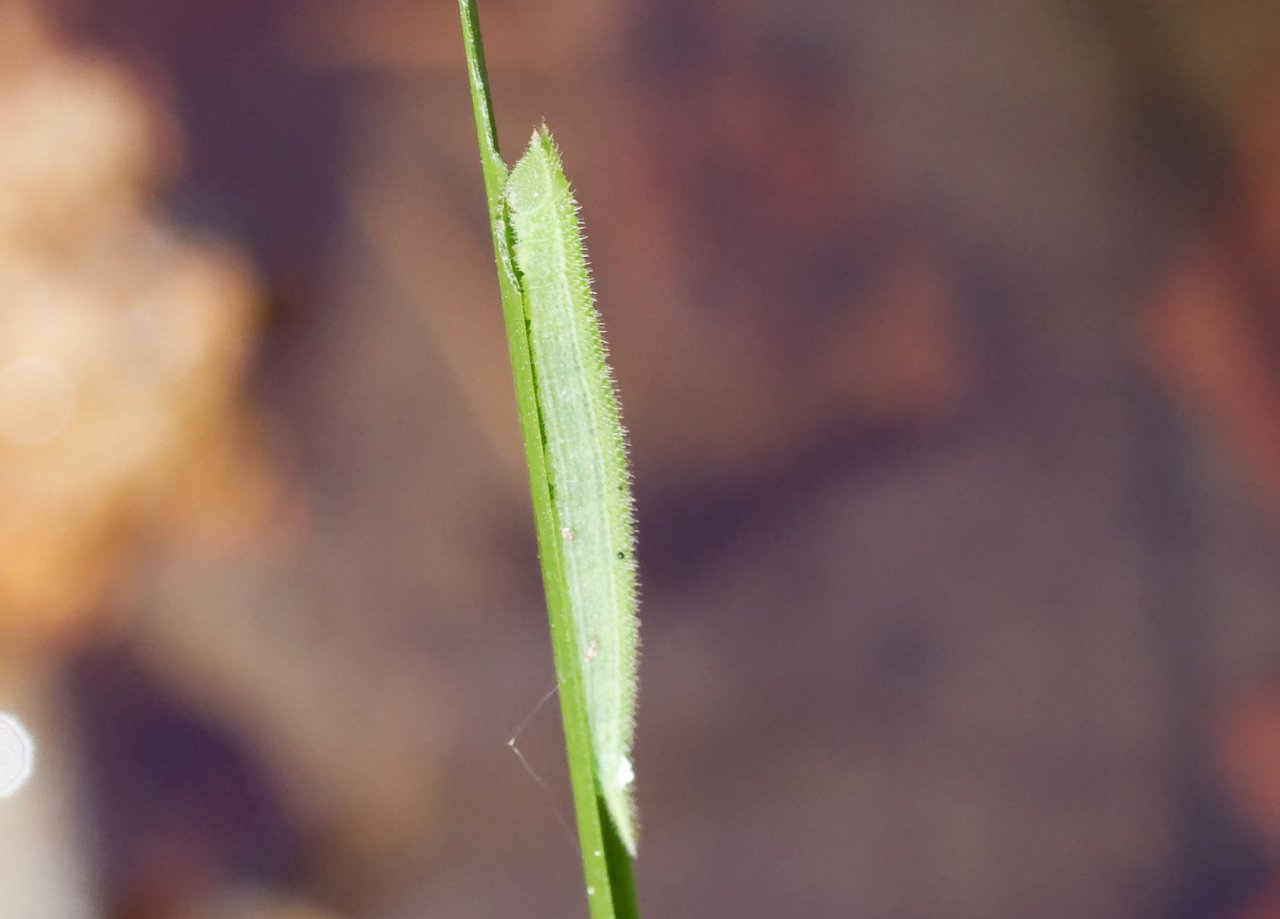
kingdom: Animalia
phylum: Arthropoda
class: Insecta
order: Lepidoptera
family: Nymphalidae
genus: Lethe
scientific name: Lethe anthedon
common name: Northern Pearly-Eye
